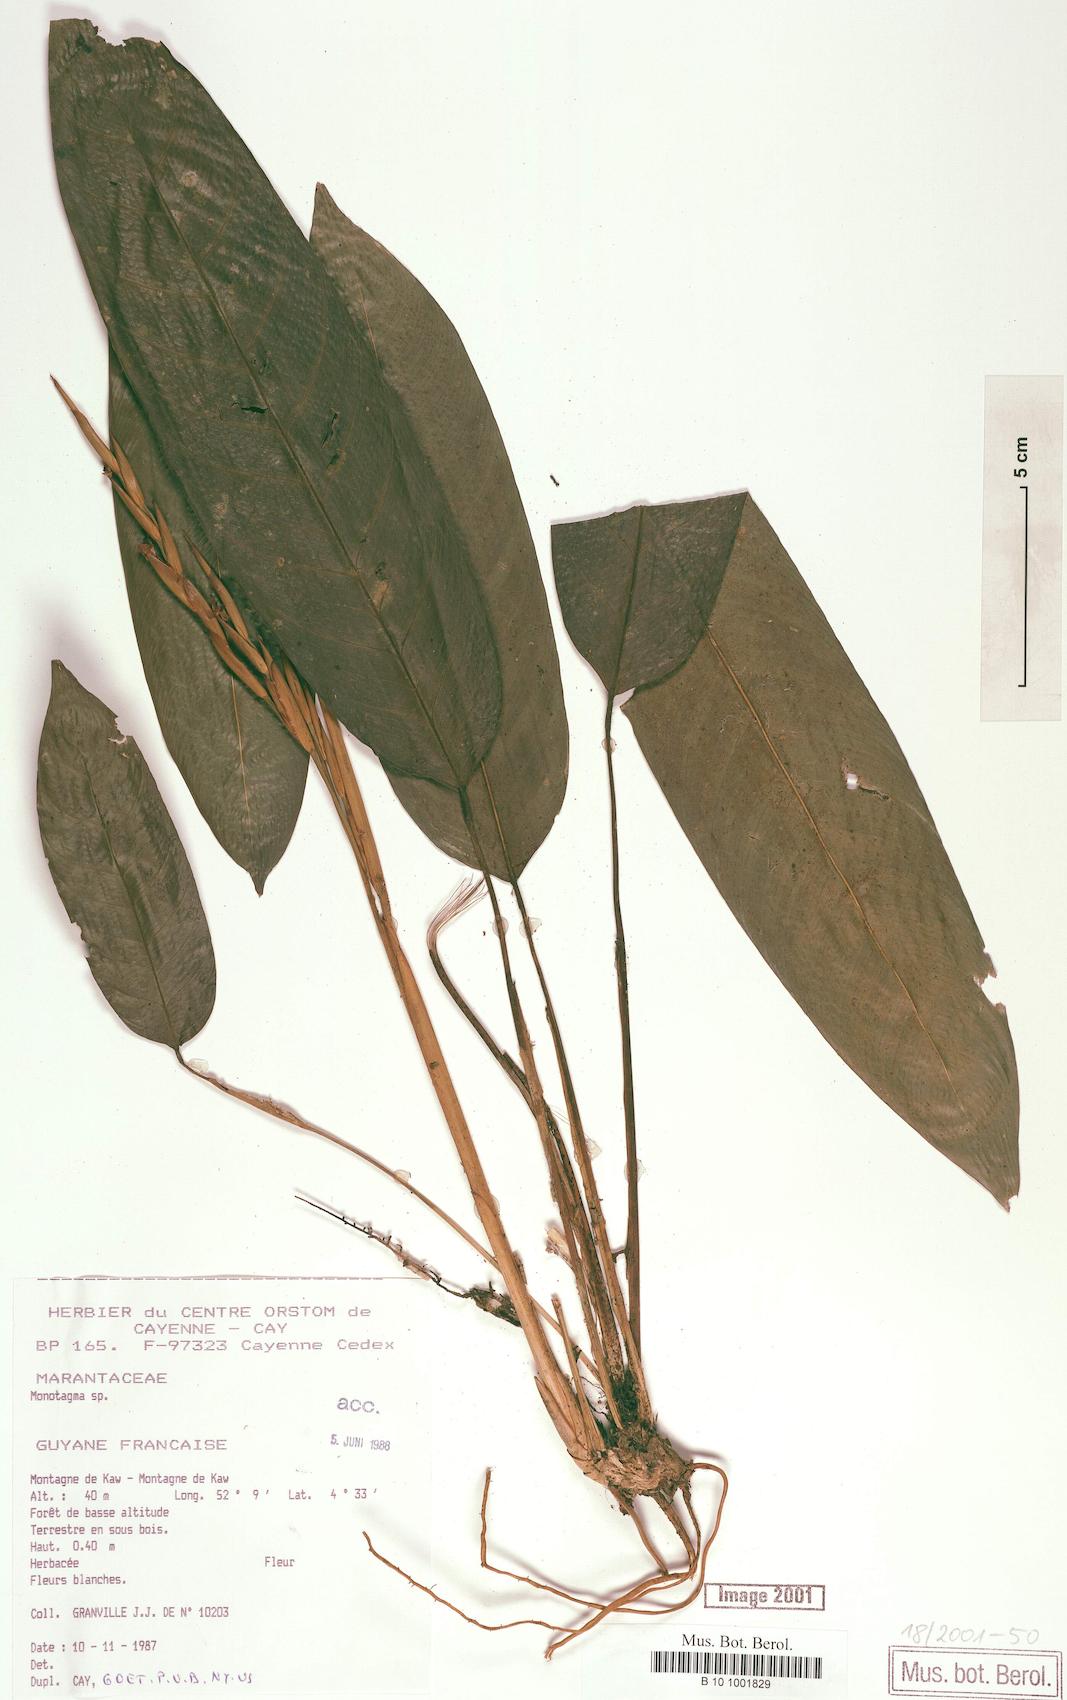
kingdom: Plantae
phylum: Tracheophyta
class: Liliopsida
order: Zingiberales
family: Marantaceae
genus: Monotagma
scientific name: Monotagma
